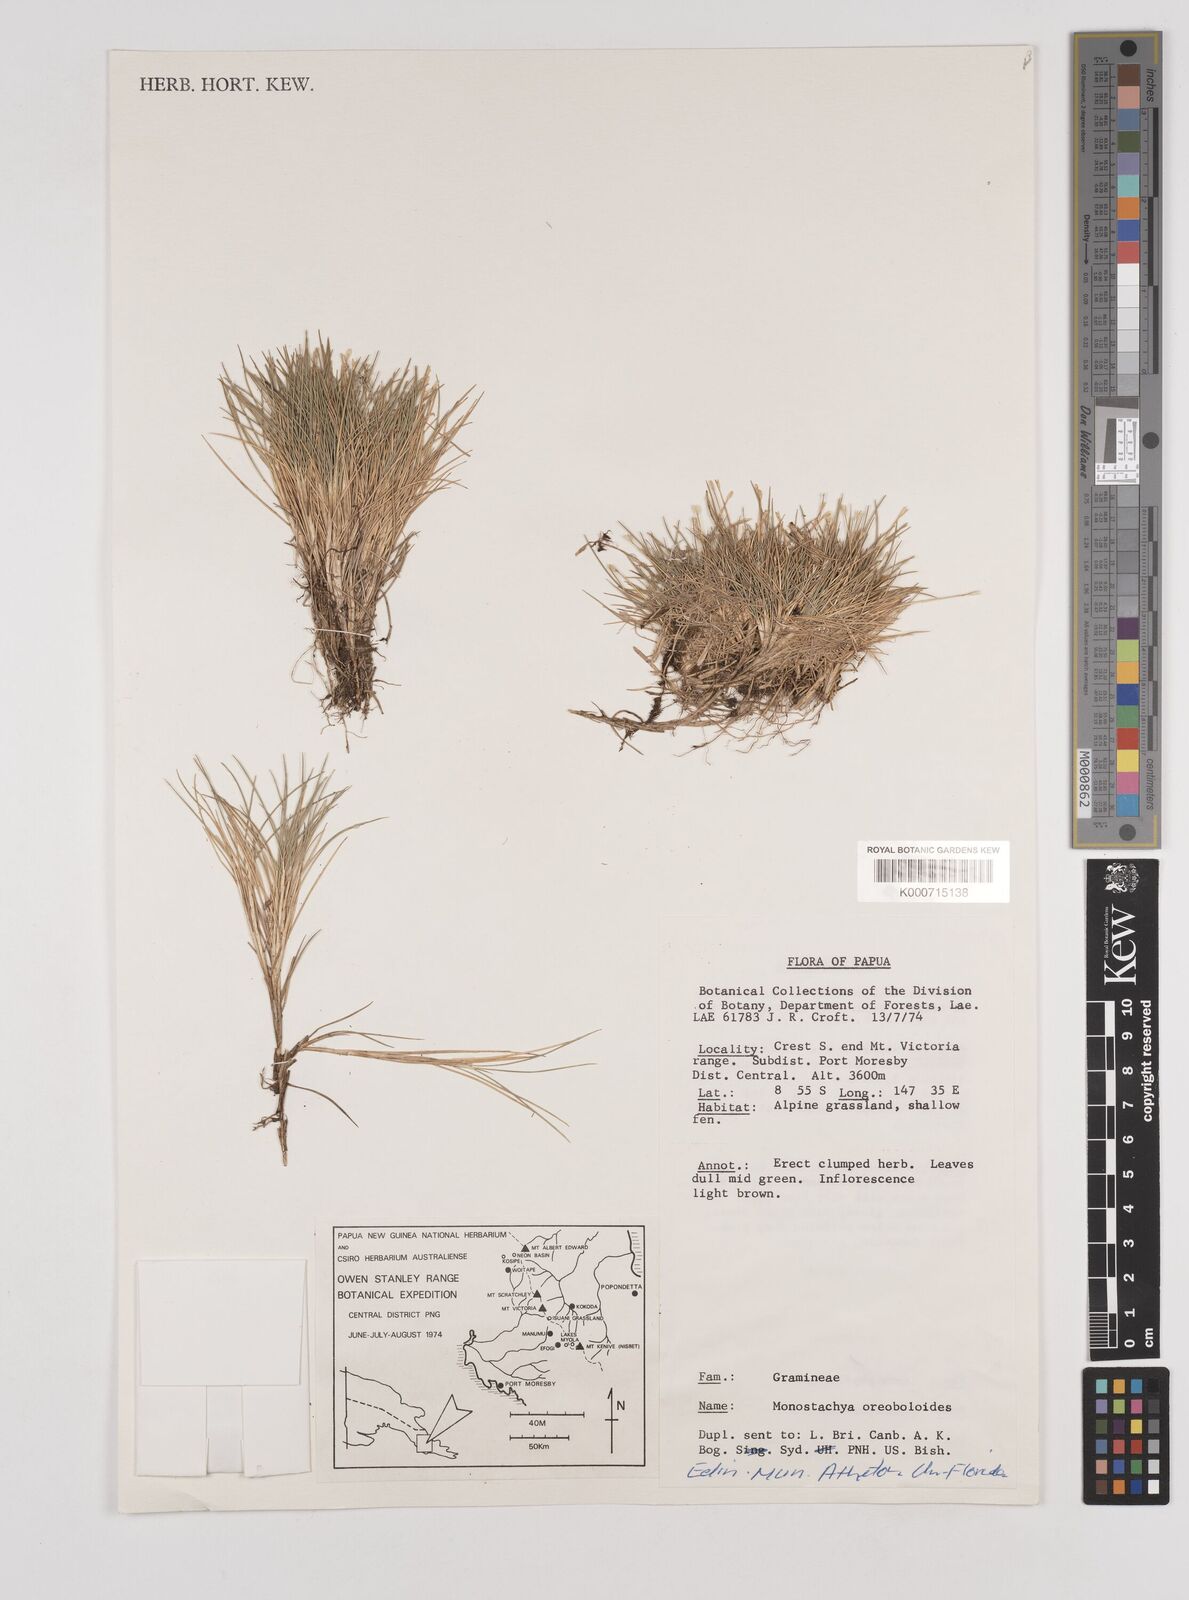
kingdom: Plantae
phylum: Tracheophyta
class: Liliopsida
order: Poales
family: Poaceae
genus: Rytidosperma
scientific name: Rytidosperma oreoboloides
